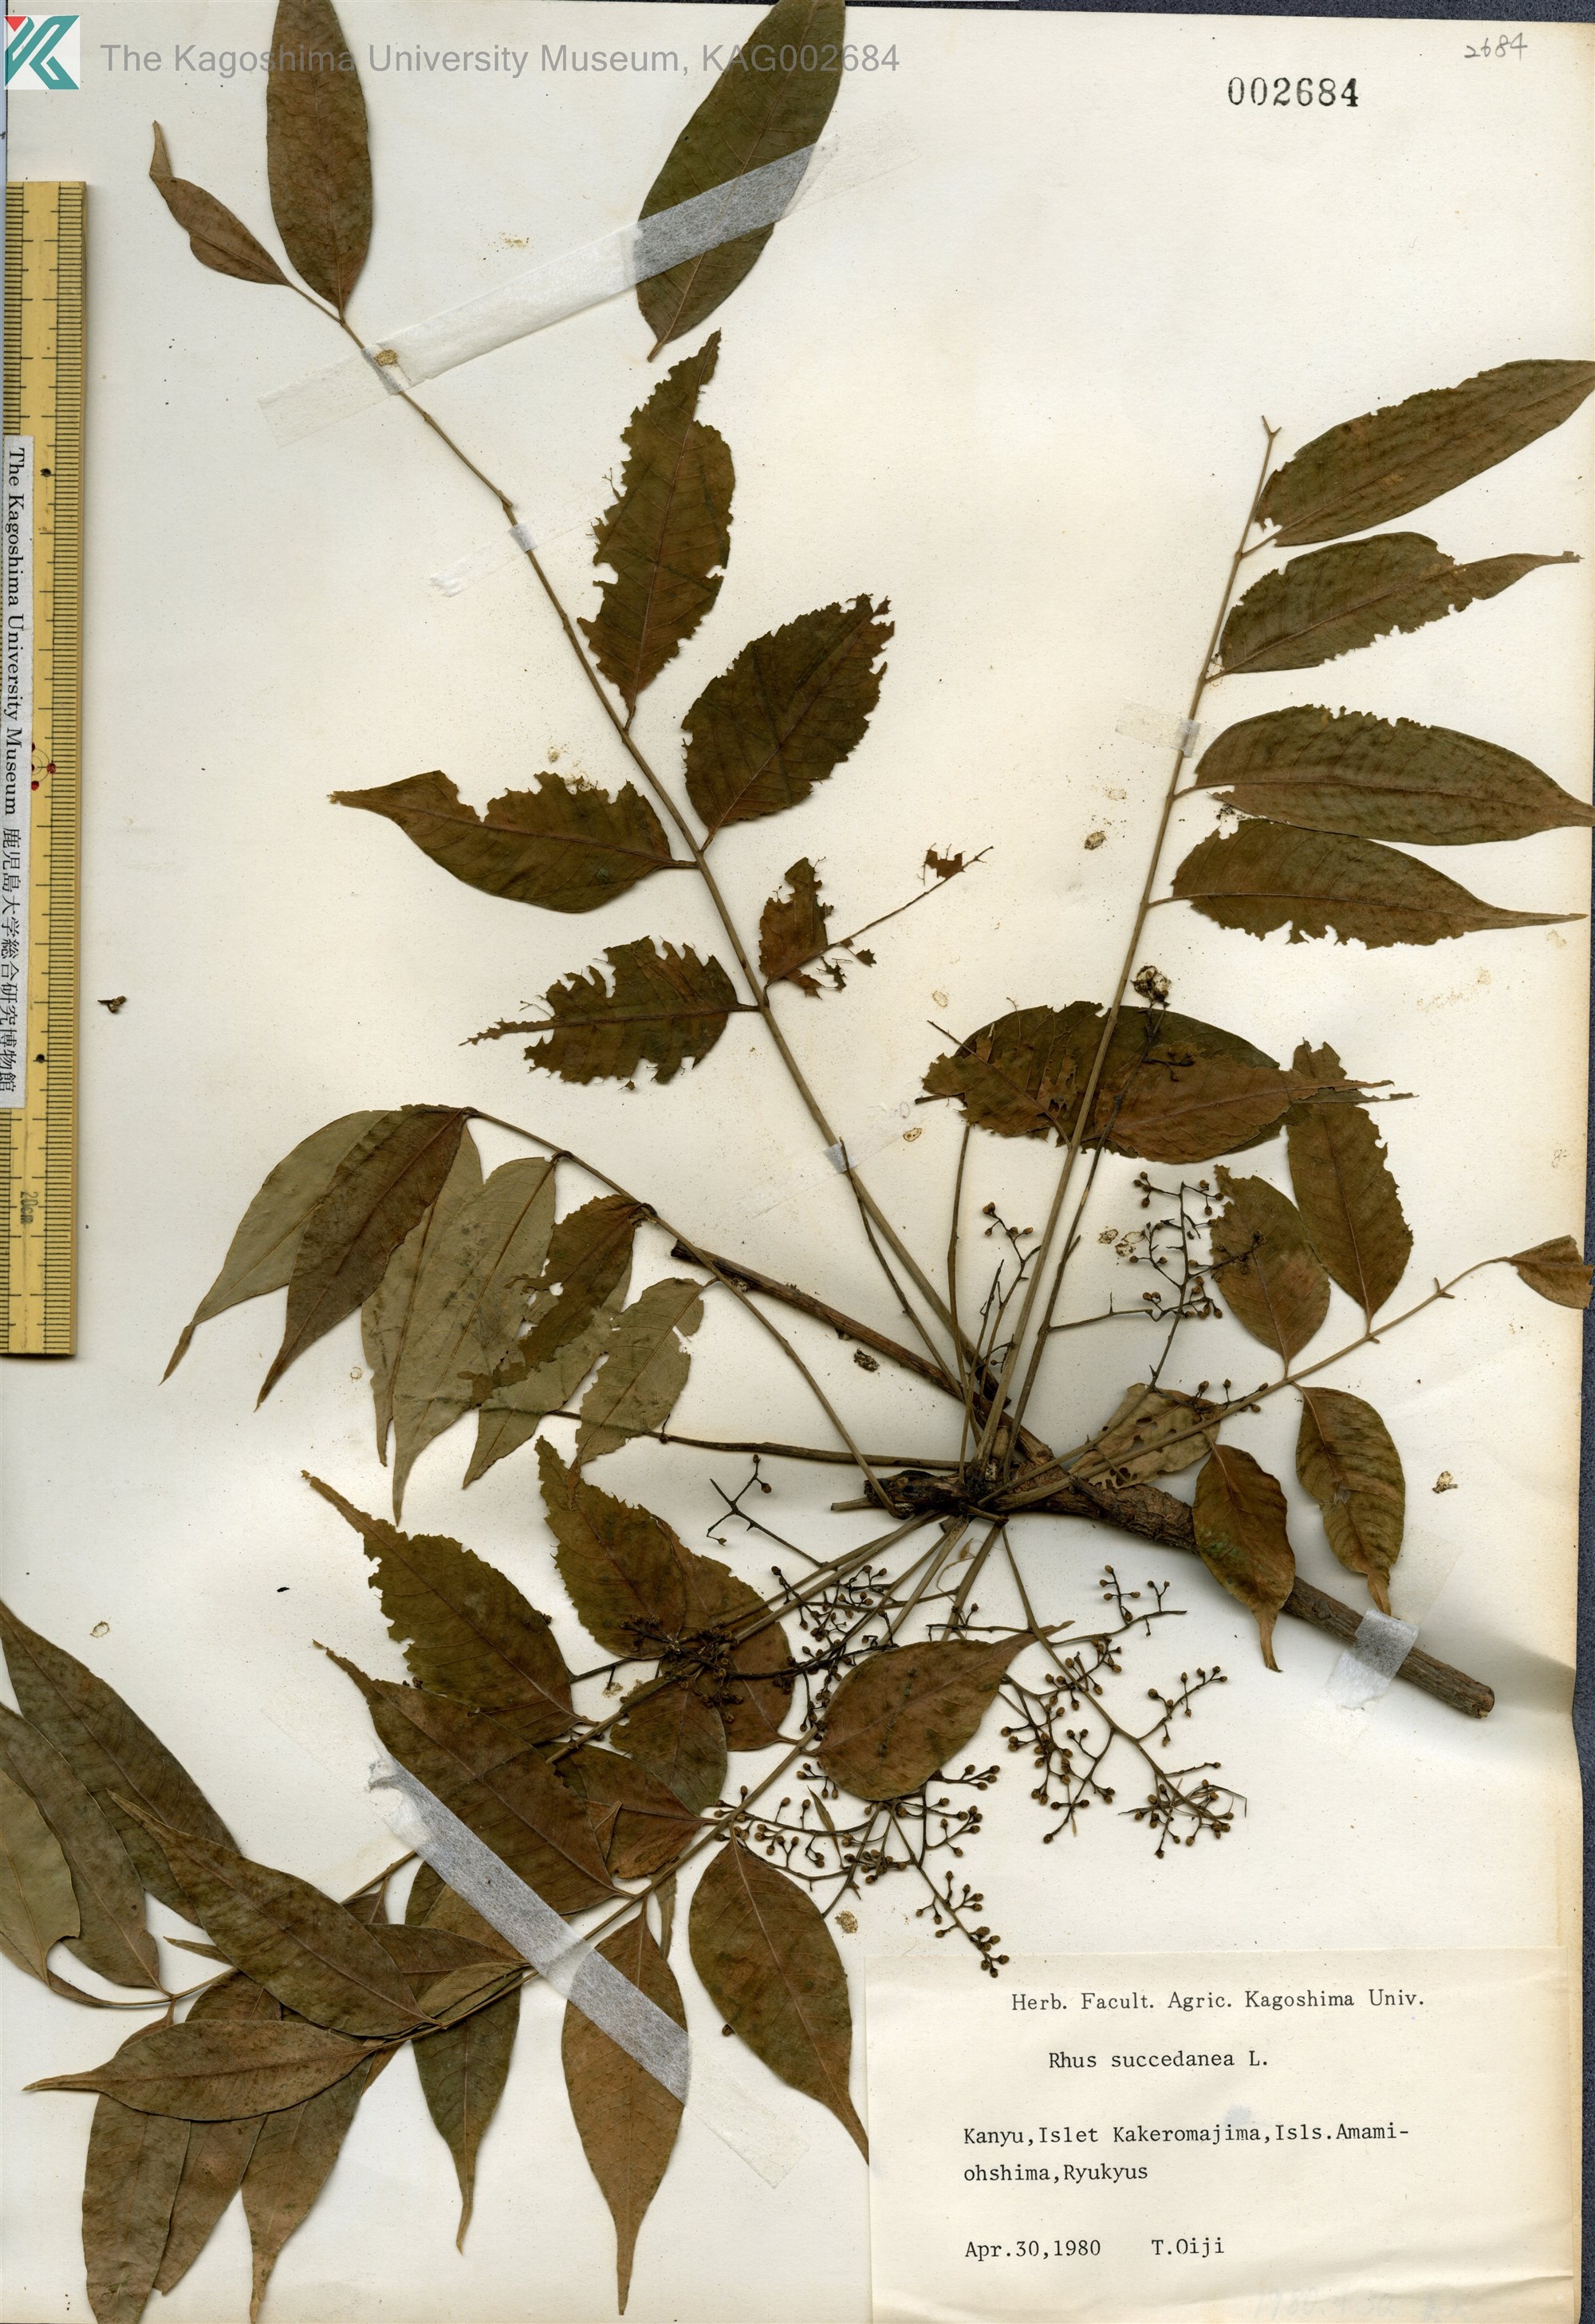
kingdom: Plantae
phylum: Tracheophyta
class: Magnoliopsida
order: Sapindales
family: Anacardiaceae
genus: Toxicodendron
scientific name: Toxicodendron succedaneum
